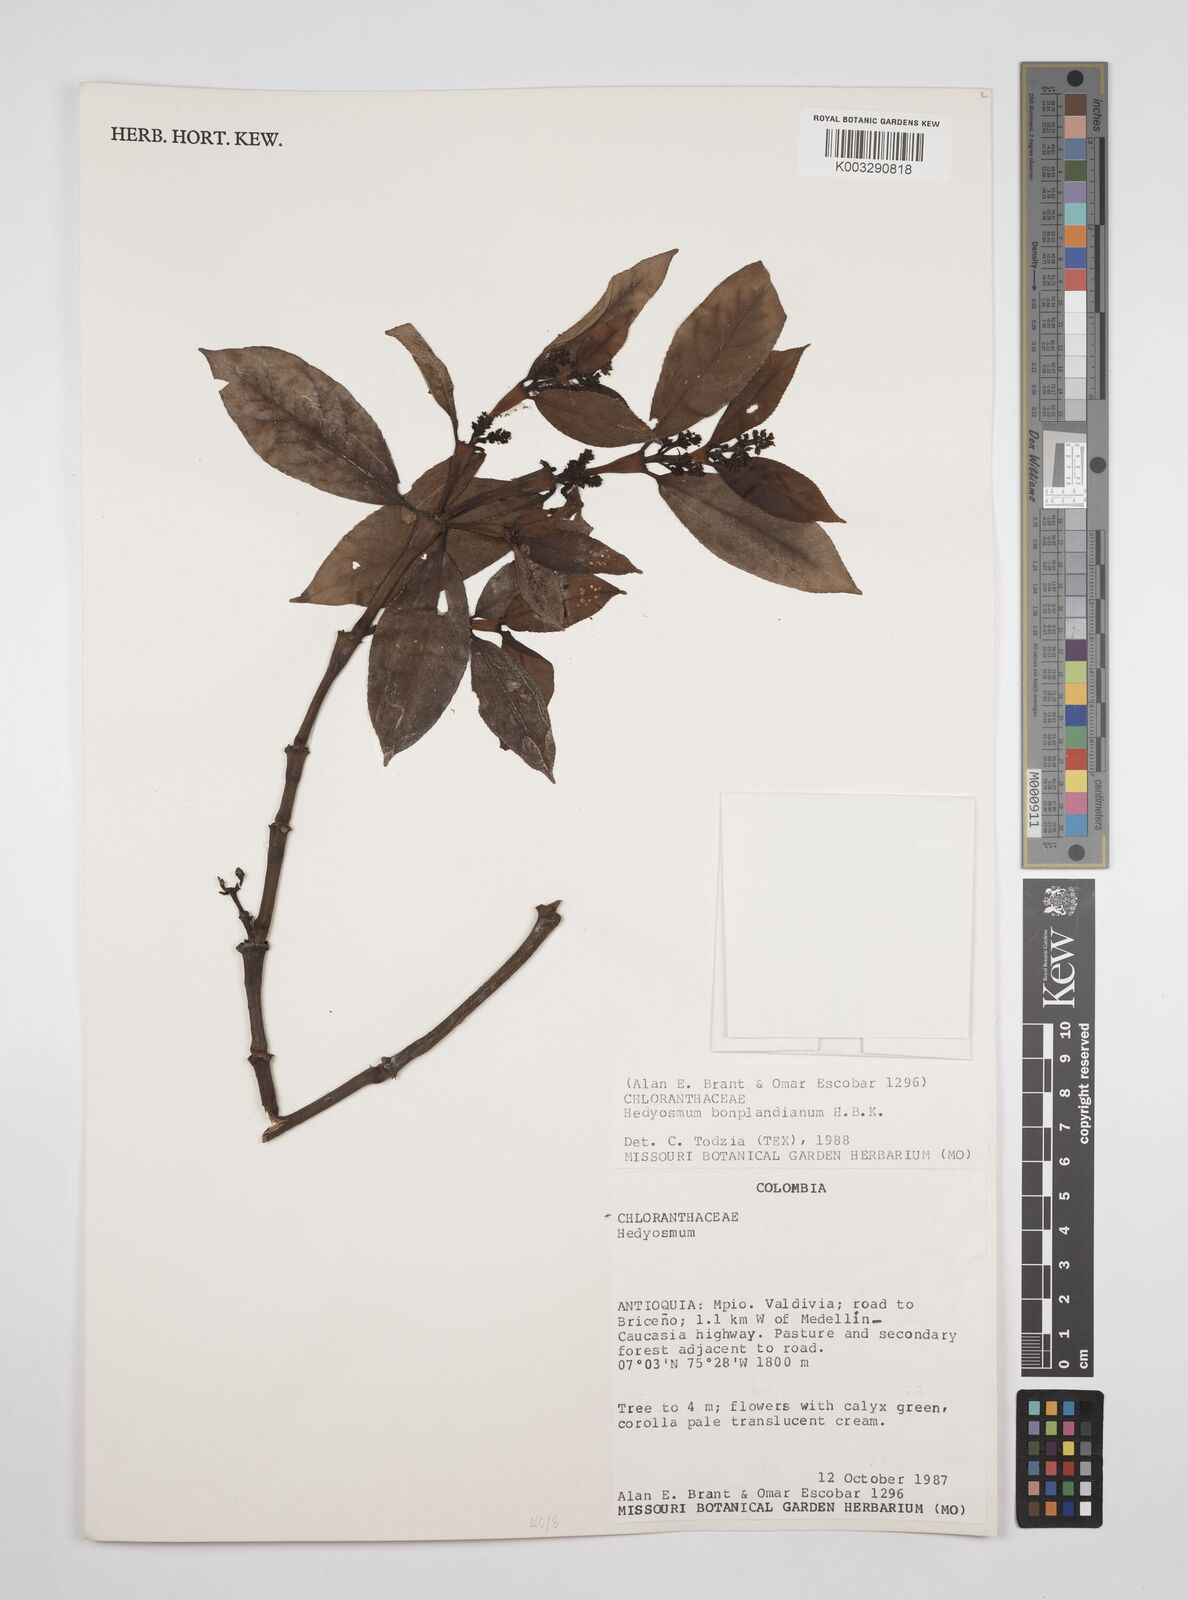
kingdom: Plantae
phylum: Tracheophyta
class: Magnoliopsida
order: Chloranthales
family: Chloranthaceae
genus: Hedyosmum
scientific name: Hedyosmum
